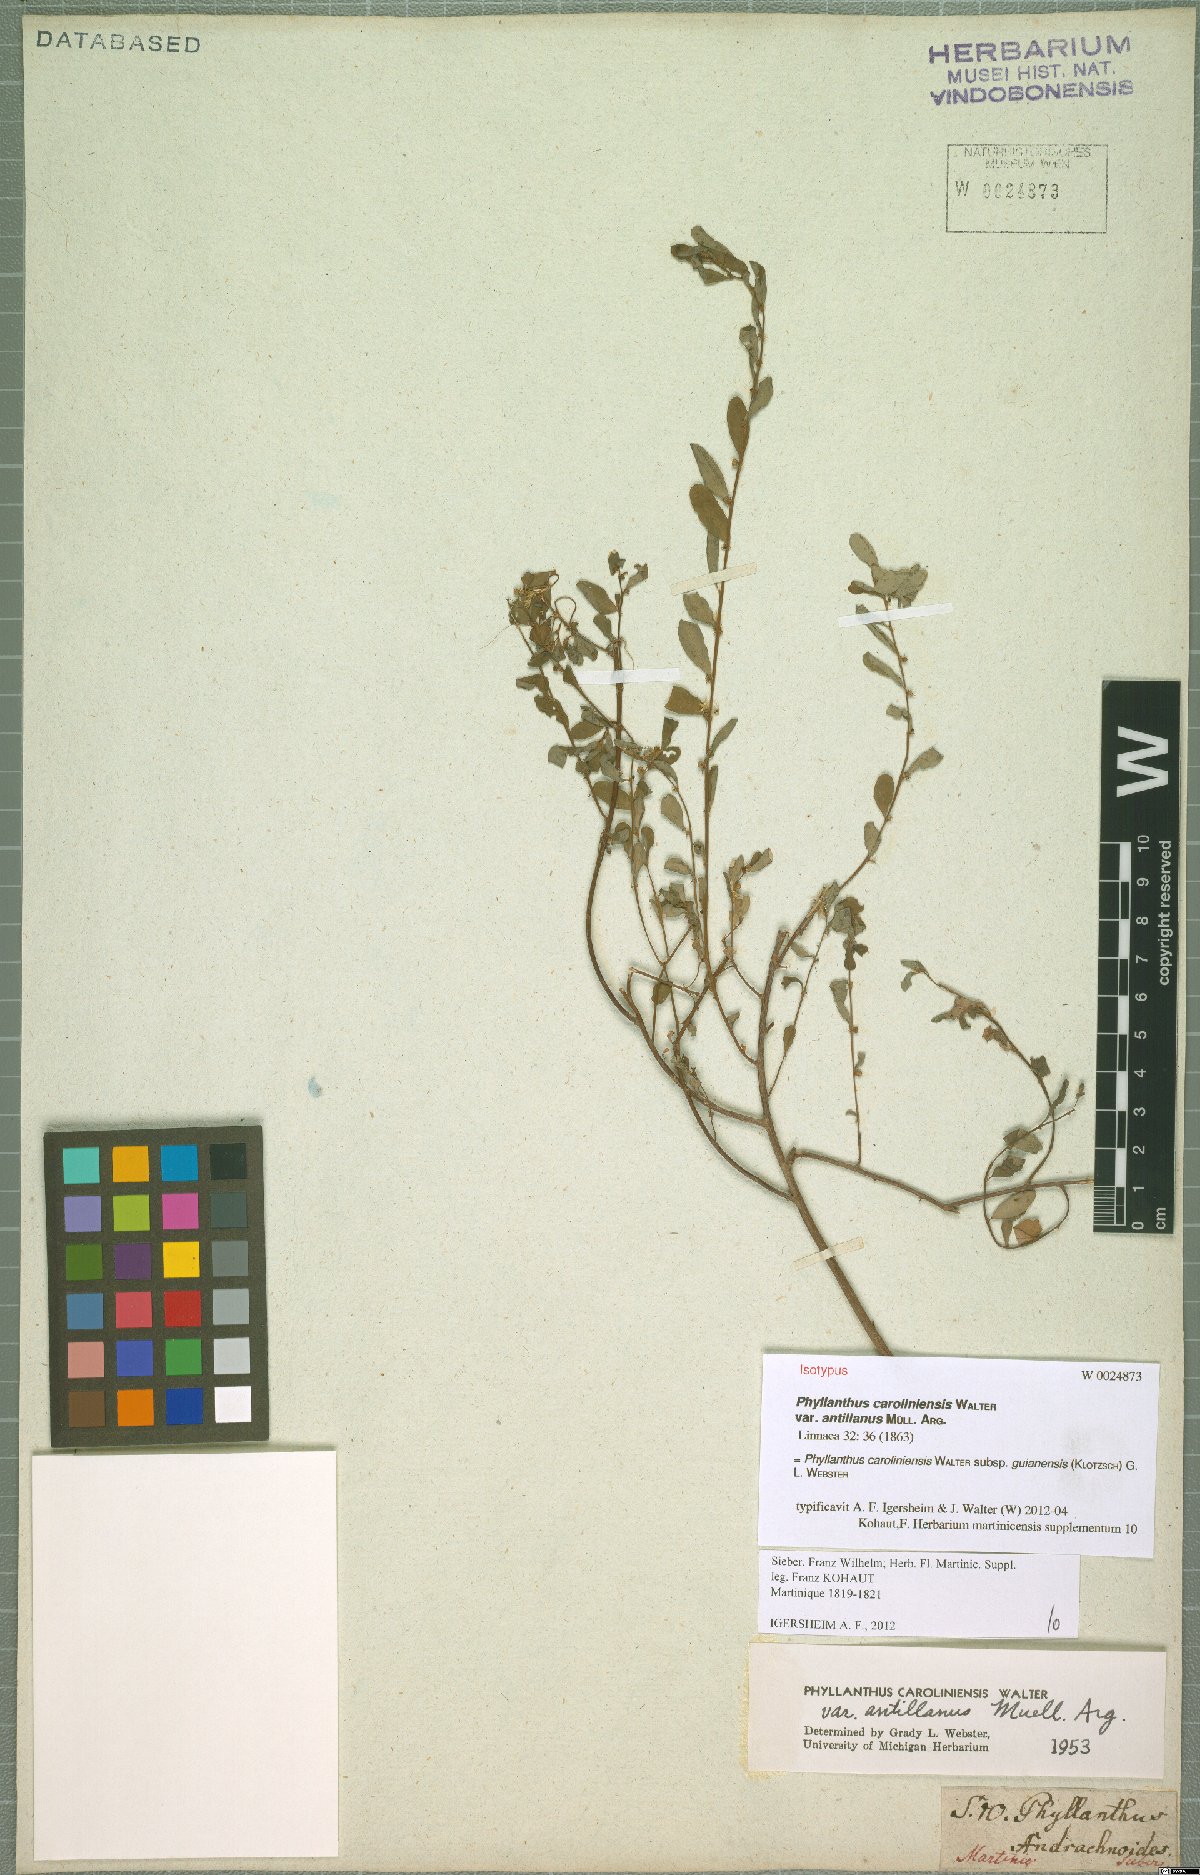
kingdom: Plantae
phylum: Tracheophyta
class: Magnoliopsida
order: Malpighiales
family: Phyllanthaceae
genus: Phyllanthus
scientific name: Phyllanthus caroliniensis
